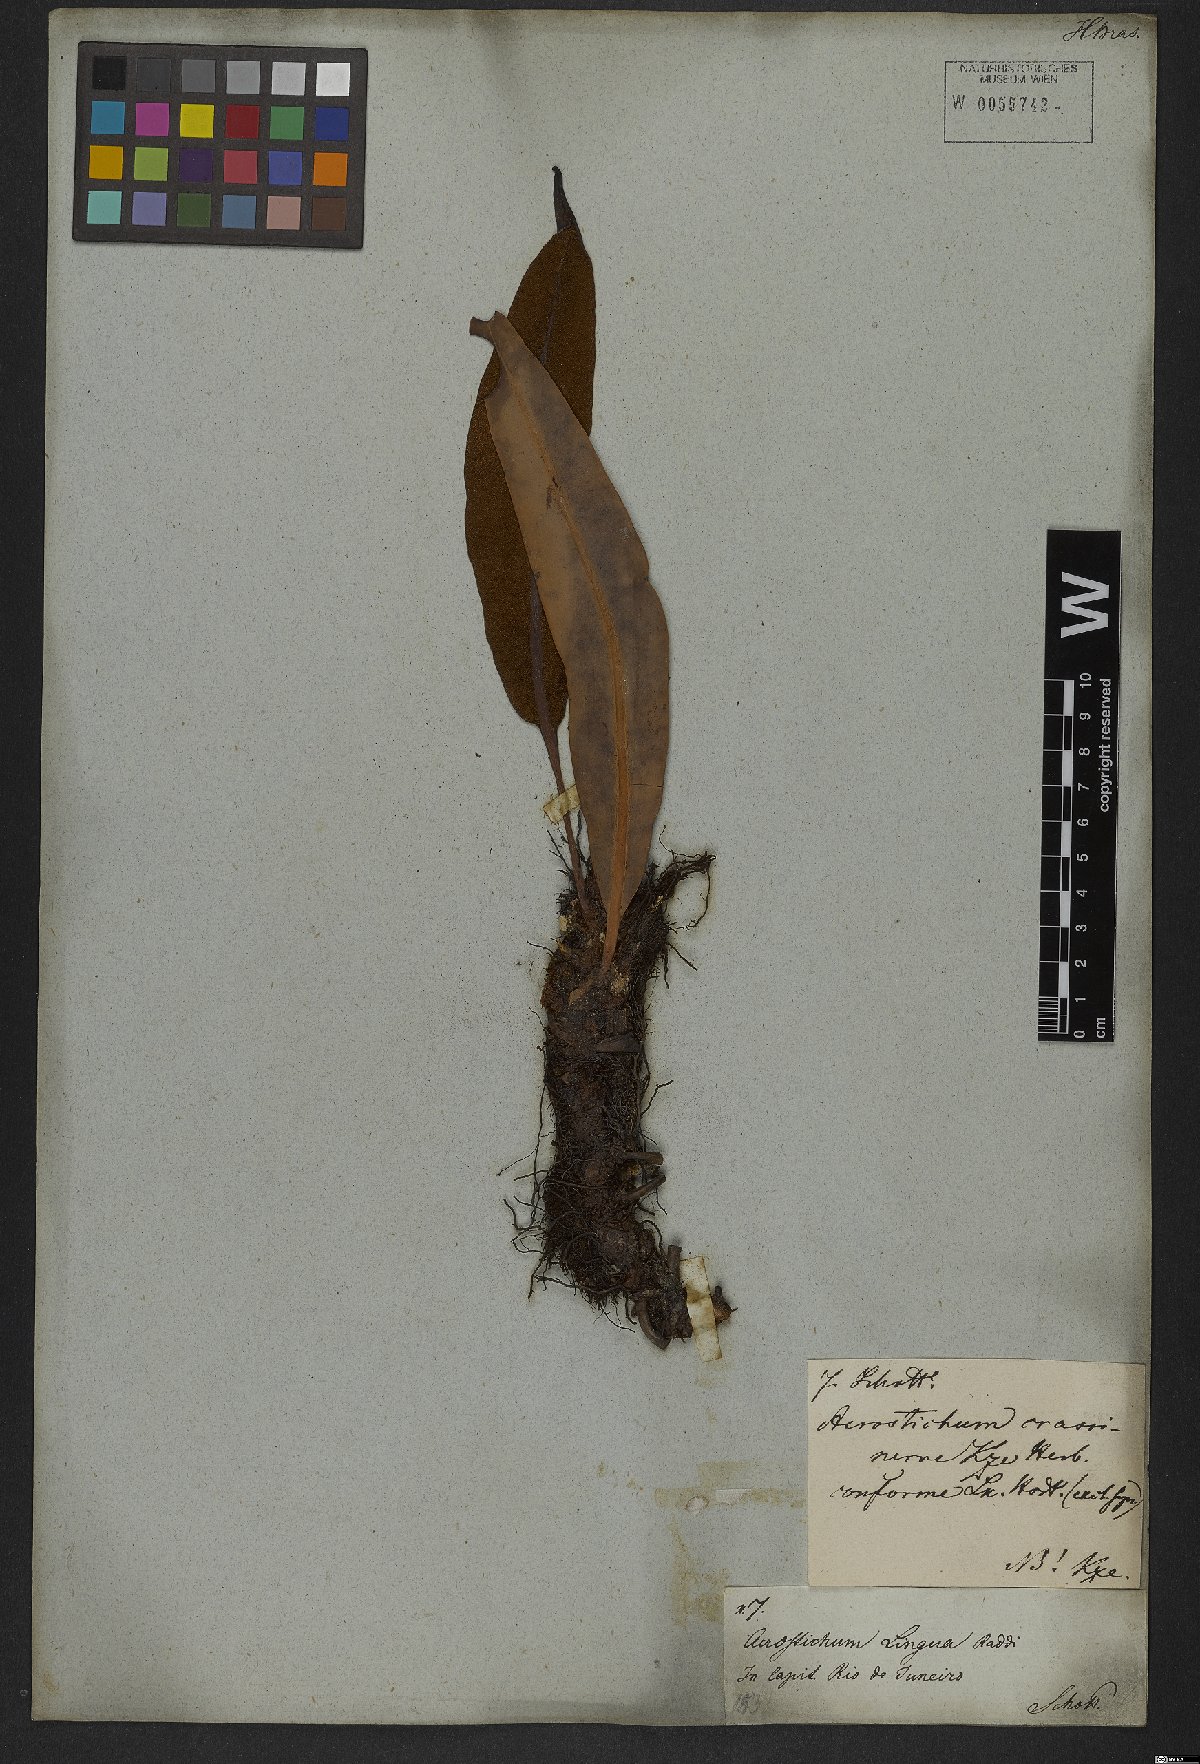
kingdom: Plantae
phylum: Tracheophyta
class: Polypodiopsida
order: Polypodiales
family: Dryopteridaceae
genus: Elaphoglossum
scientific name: Elaphoglossum conforme
